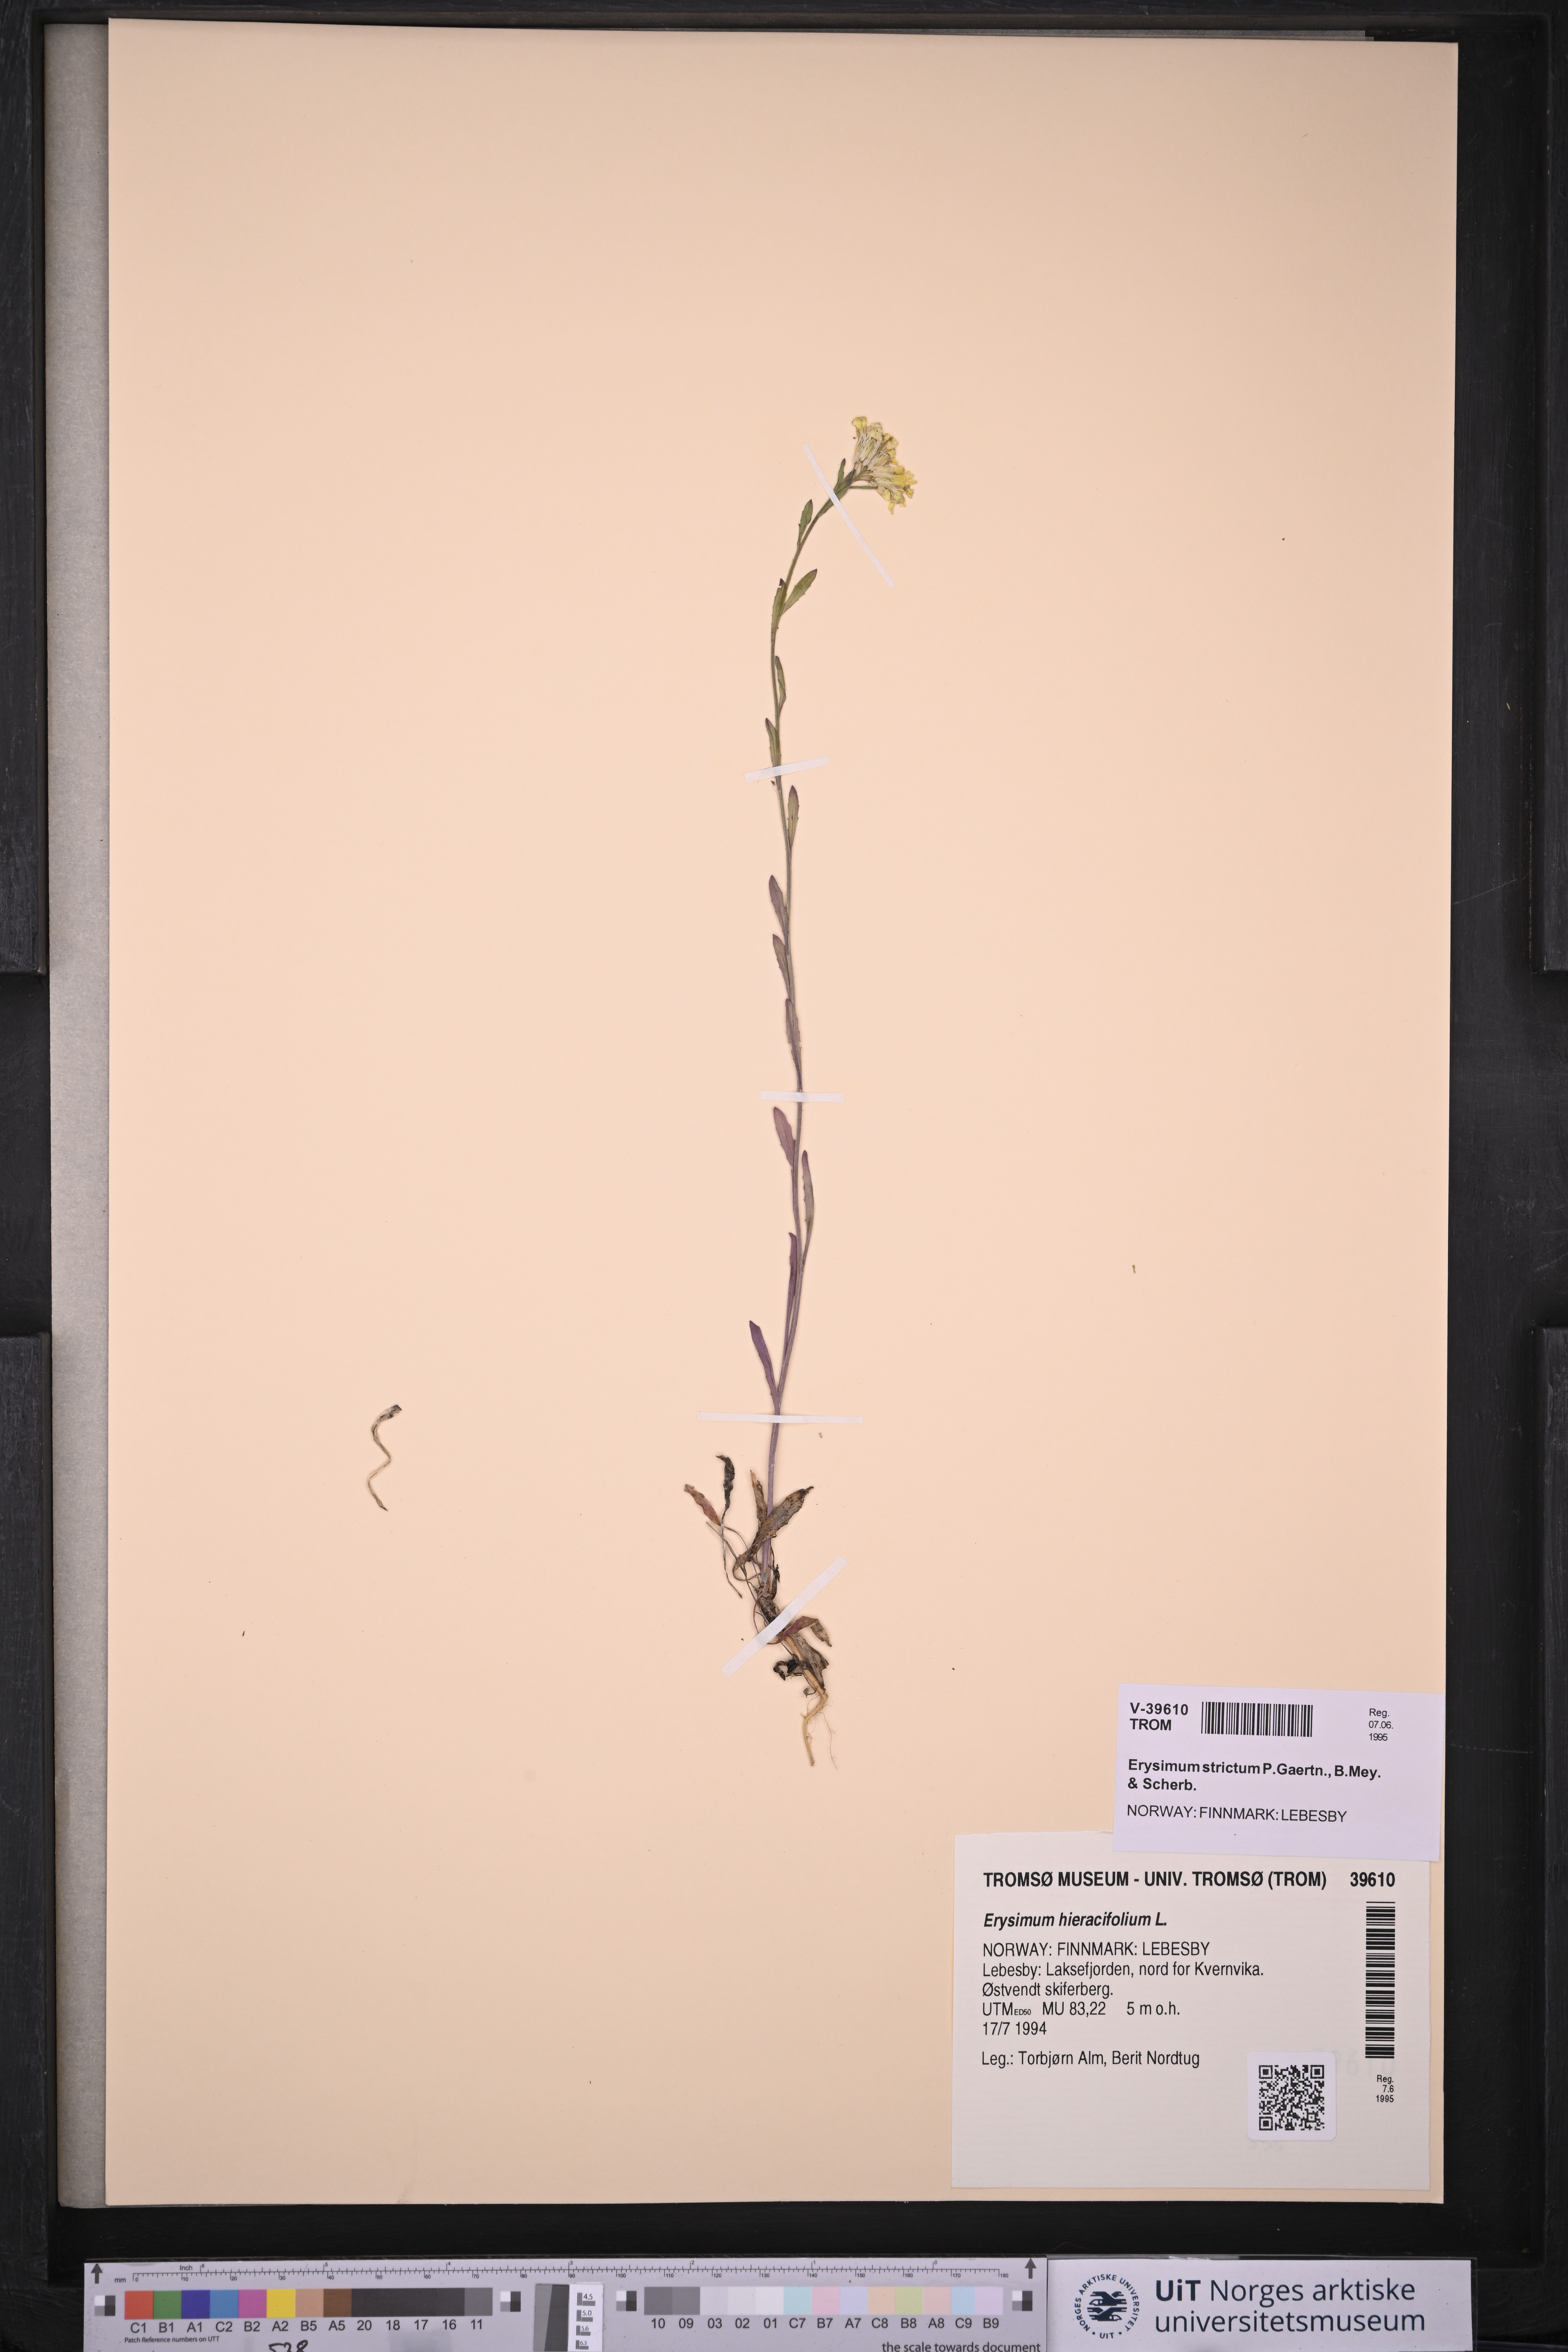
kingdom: Plantae
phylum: Tracheophyta
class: Magnoliopsida
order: Brassicales
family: Brassicaceae
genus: Erysimum
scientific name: Erysimum hieraciifolium
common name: European wallflower
